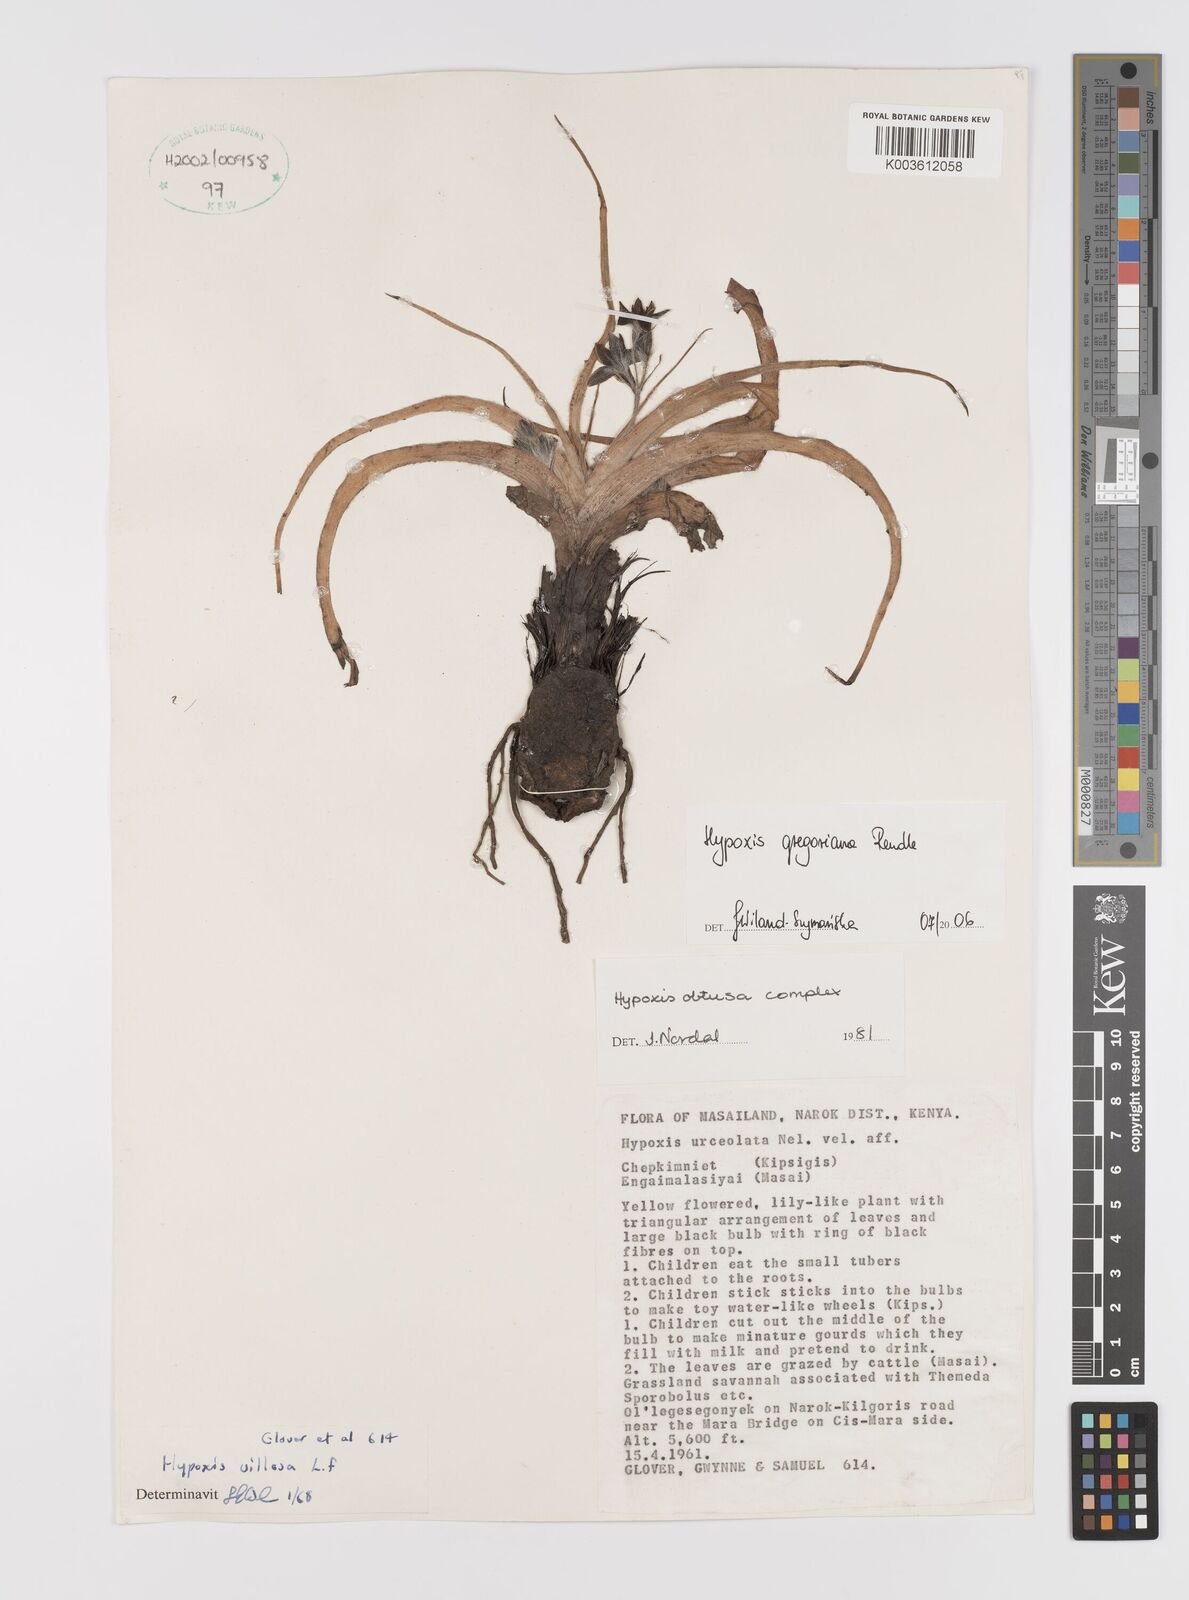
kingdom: Plantae
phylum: Tracheophyta
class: Liliopsida
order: Asparagales
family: Hypoxidaceae
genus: Hypoxis
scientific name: Hypoxis gregoriana
